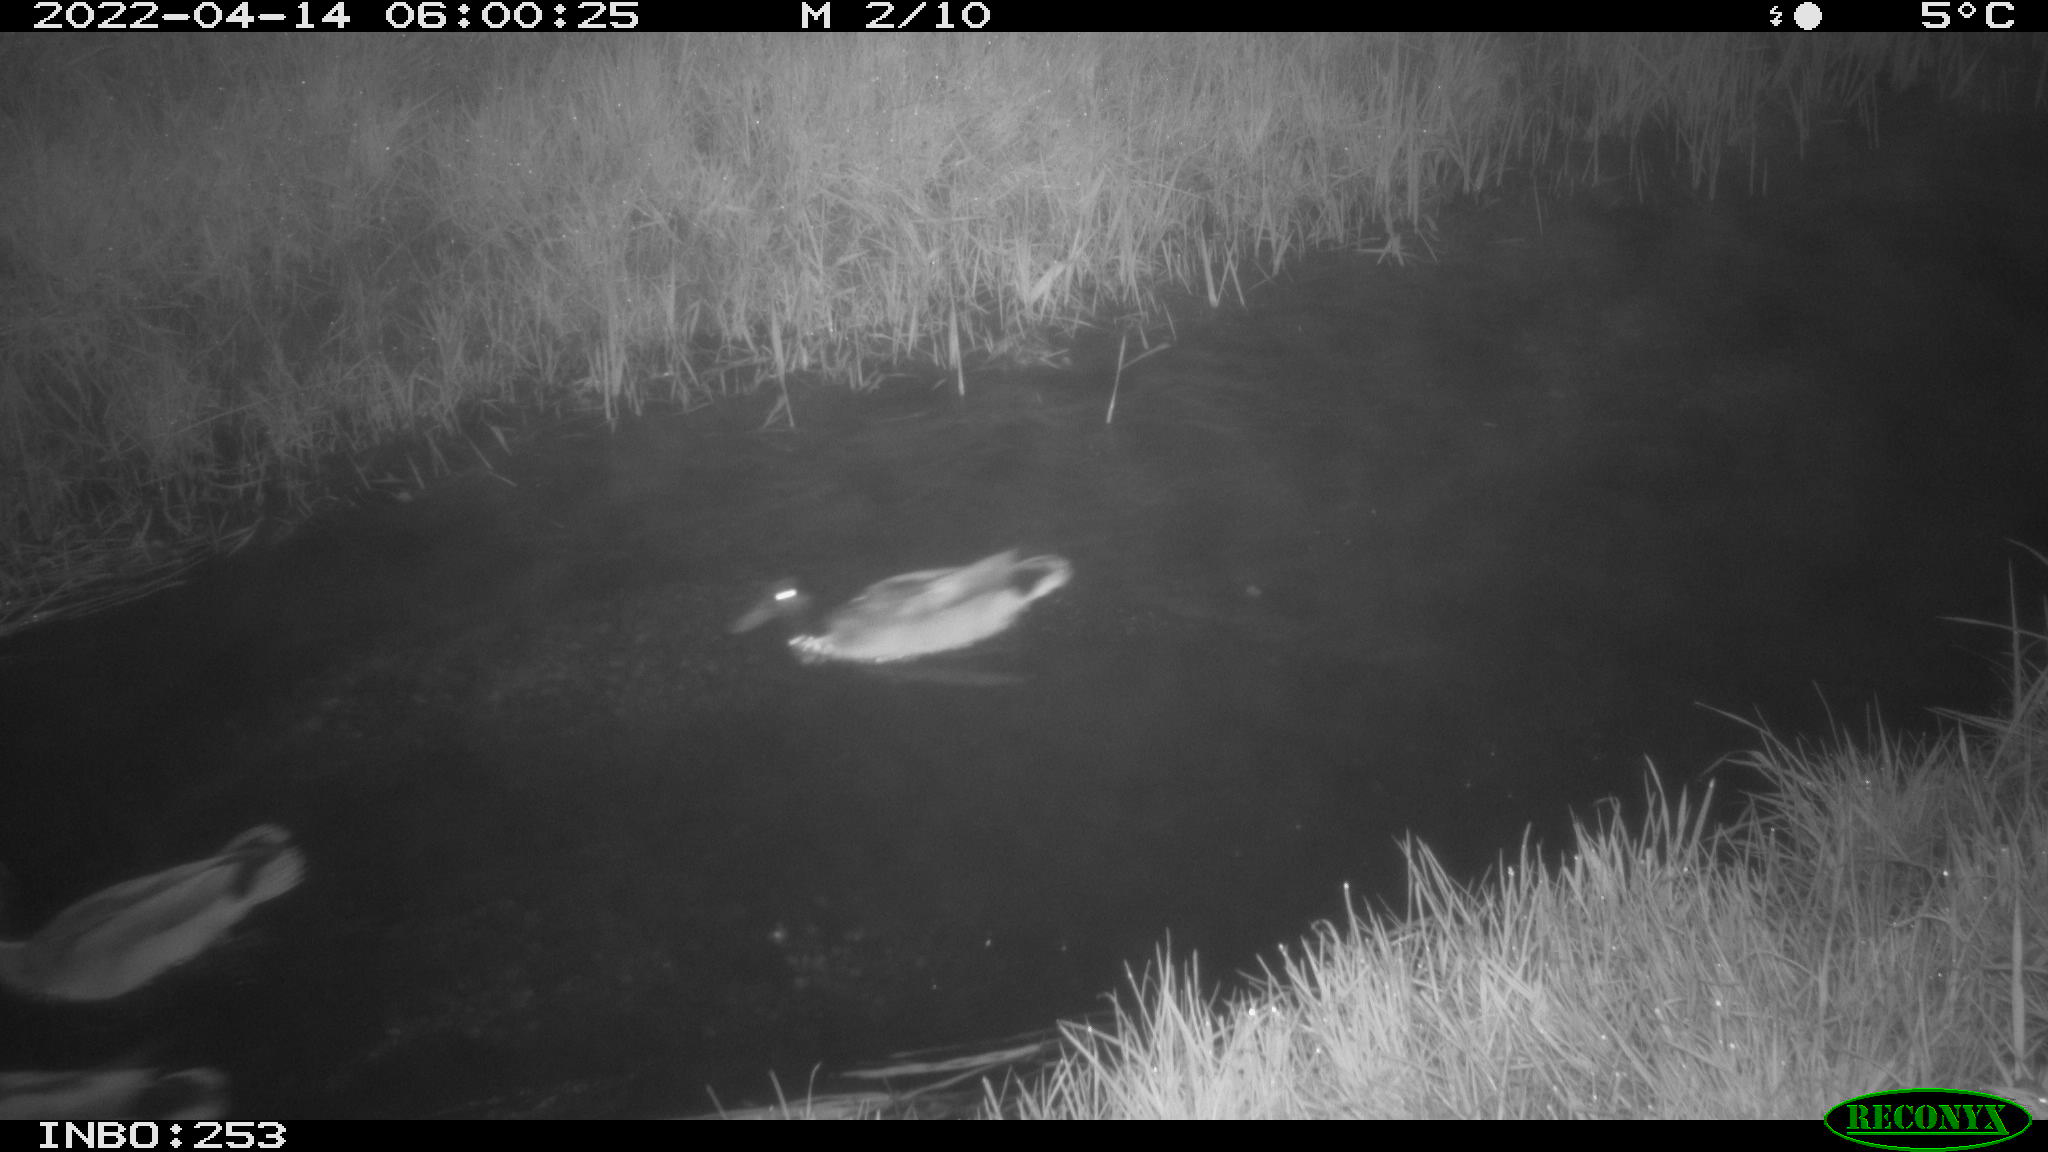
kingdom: Animalia
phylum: Chordata
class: Aves
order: Anseriformes
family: Anatidae
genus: Anas
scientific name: Anas platyrhynchos
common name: Mallard
